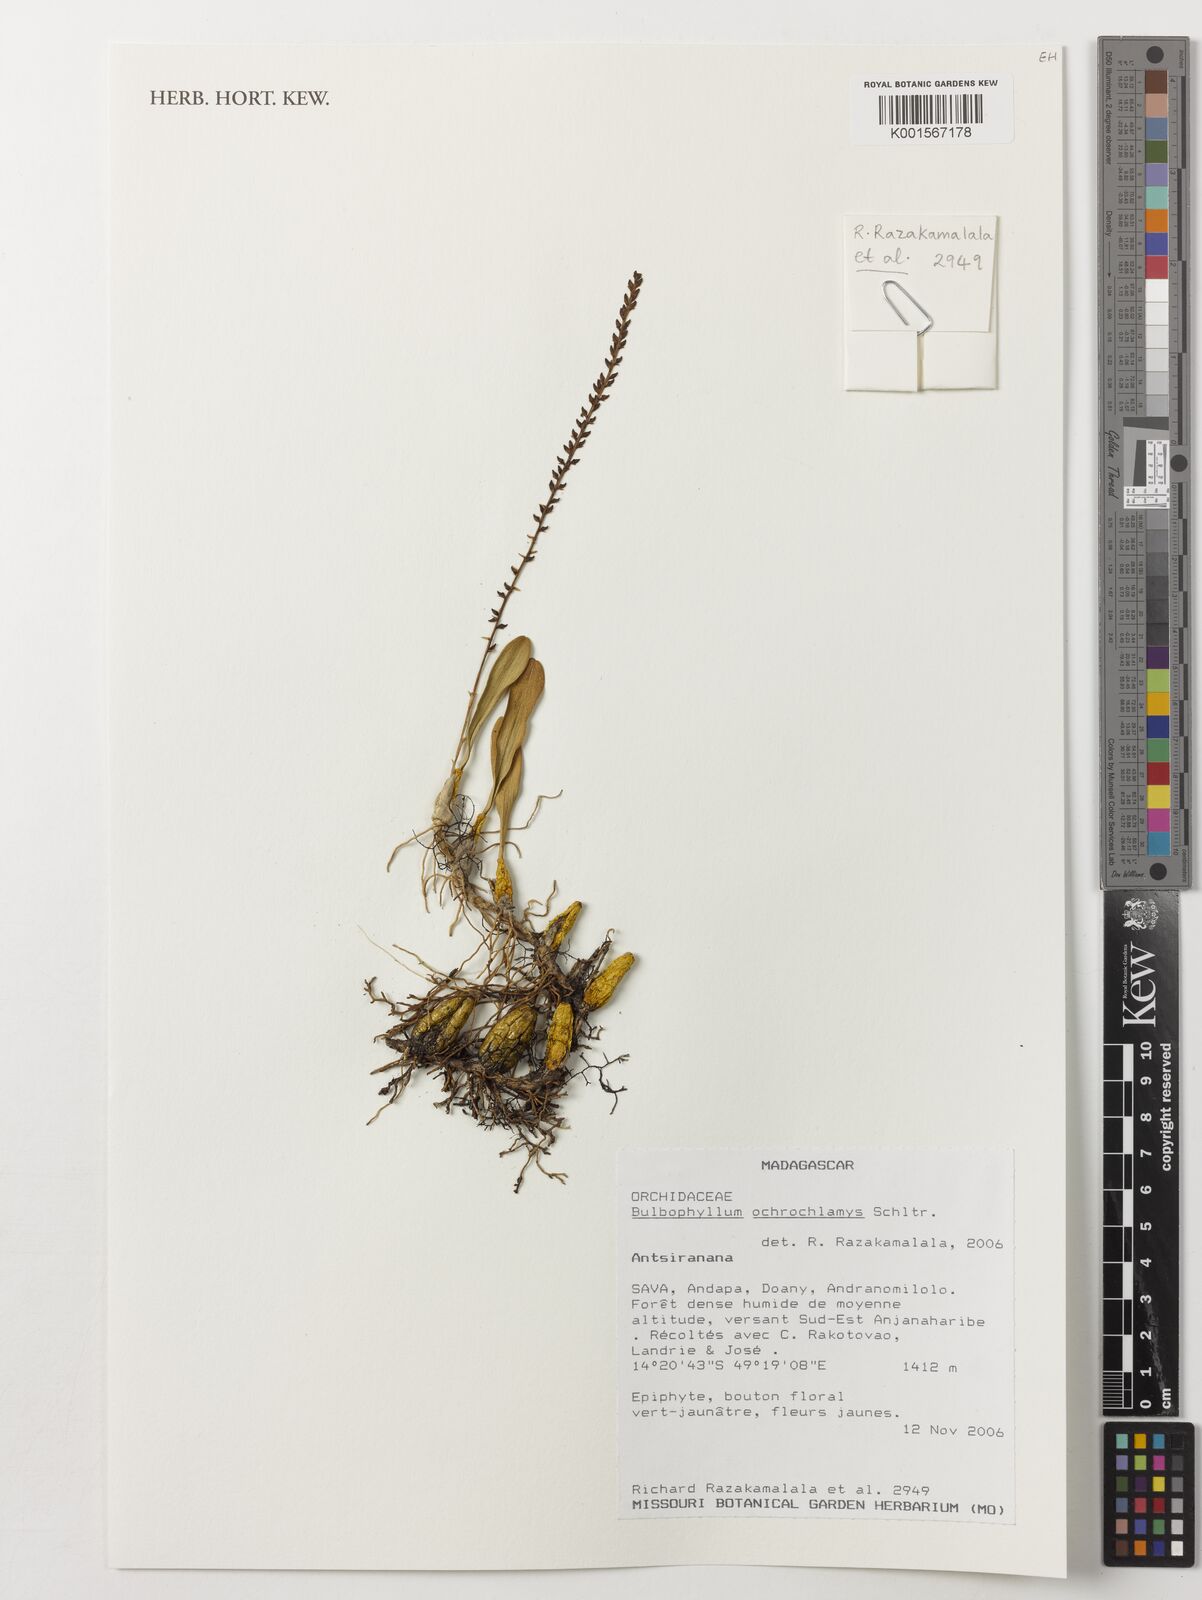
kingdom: Plantae
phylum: Tracheophyta
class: Liliopsida
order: Asparagales
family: Orchidaceae
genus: Bulbophyllum
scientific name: Bulbophyllum vakonae
